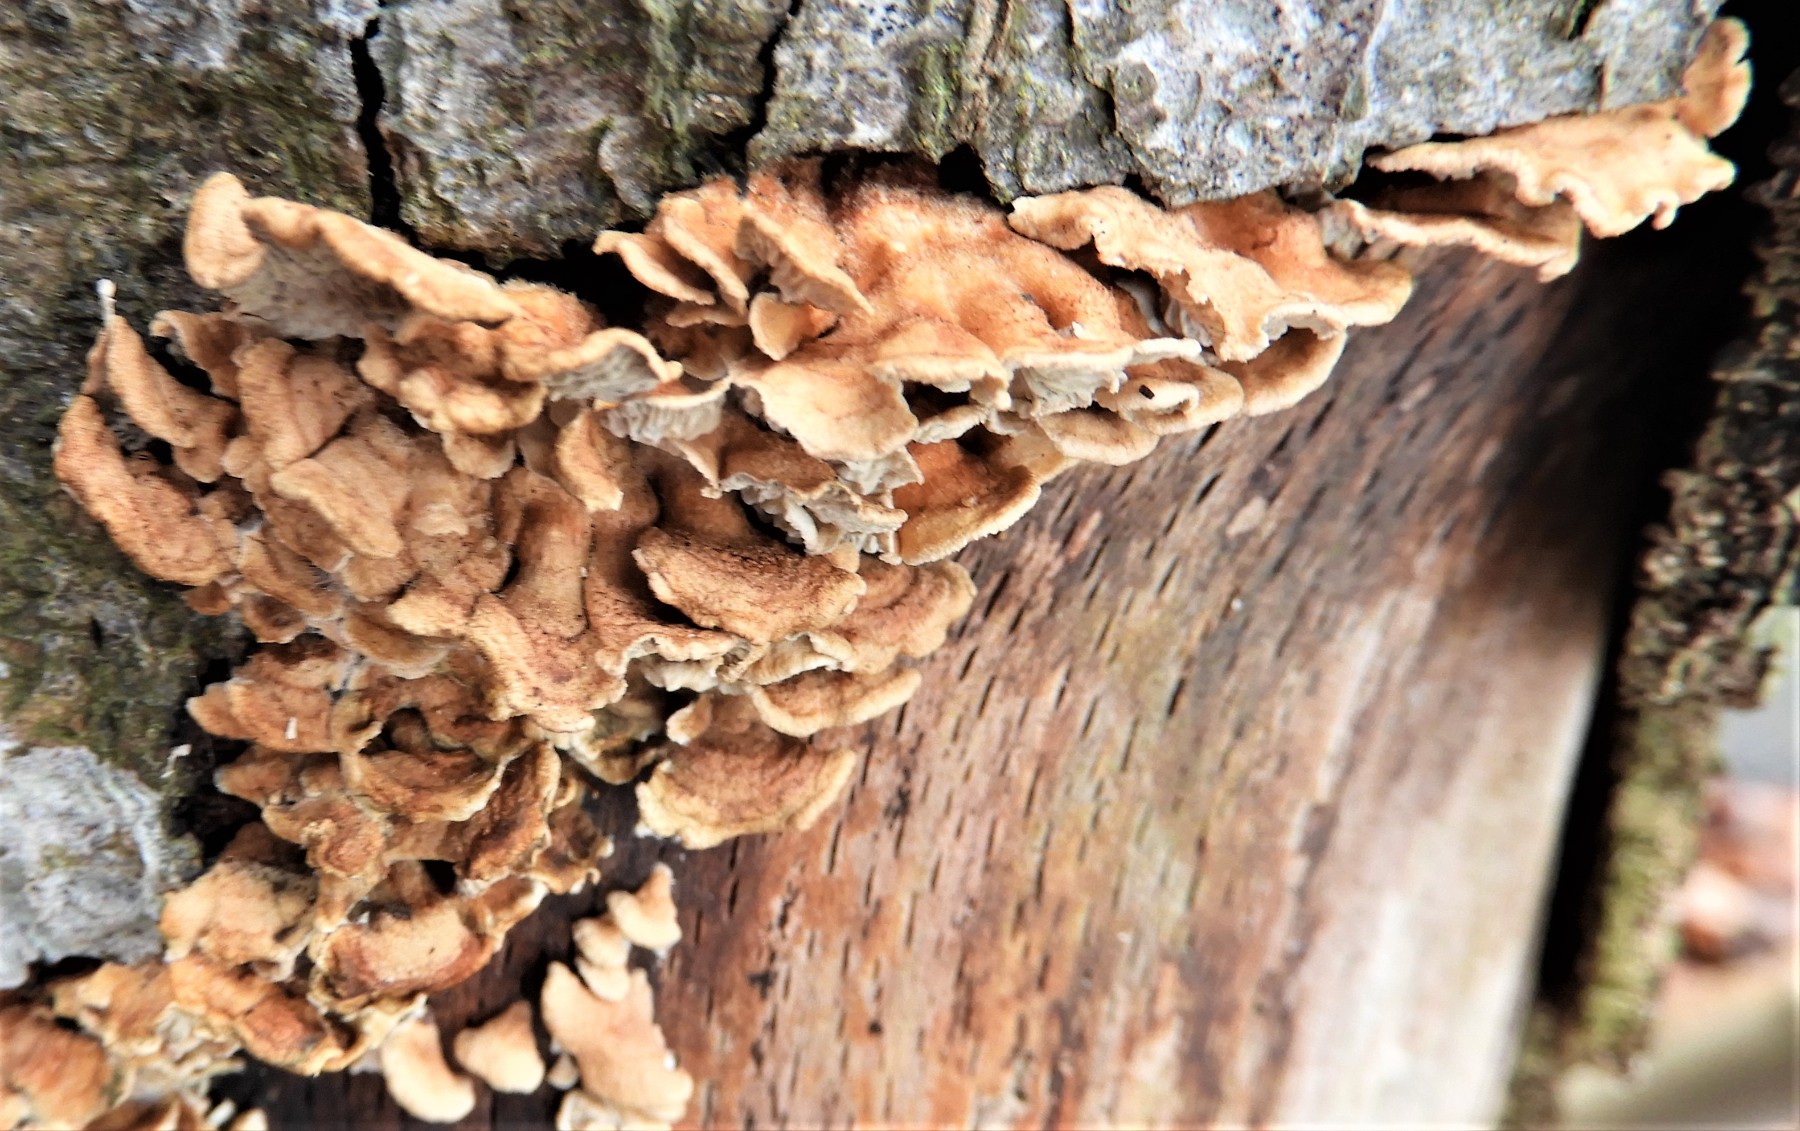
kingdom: Fungi
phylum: Basidiomycota
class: Agaricomycetes
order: Amylocorticiales
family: Amylocorticiaceae
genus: Plicaturopsis
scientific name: Plicaturopsis crispa
